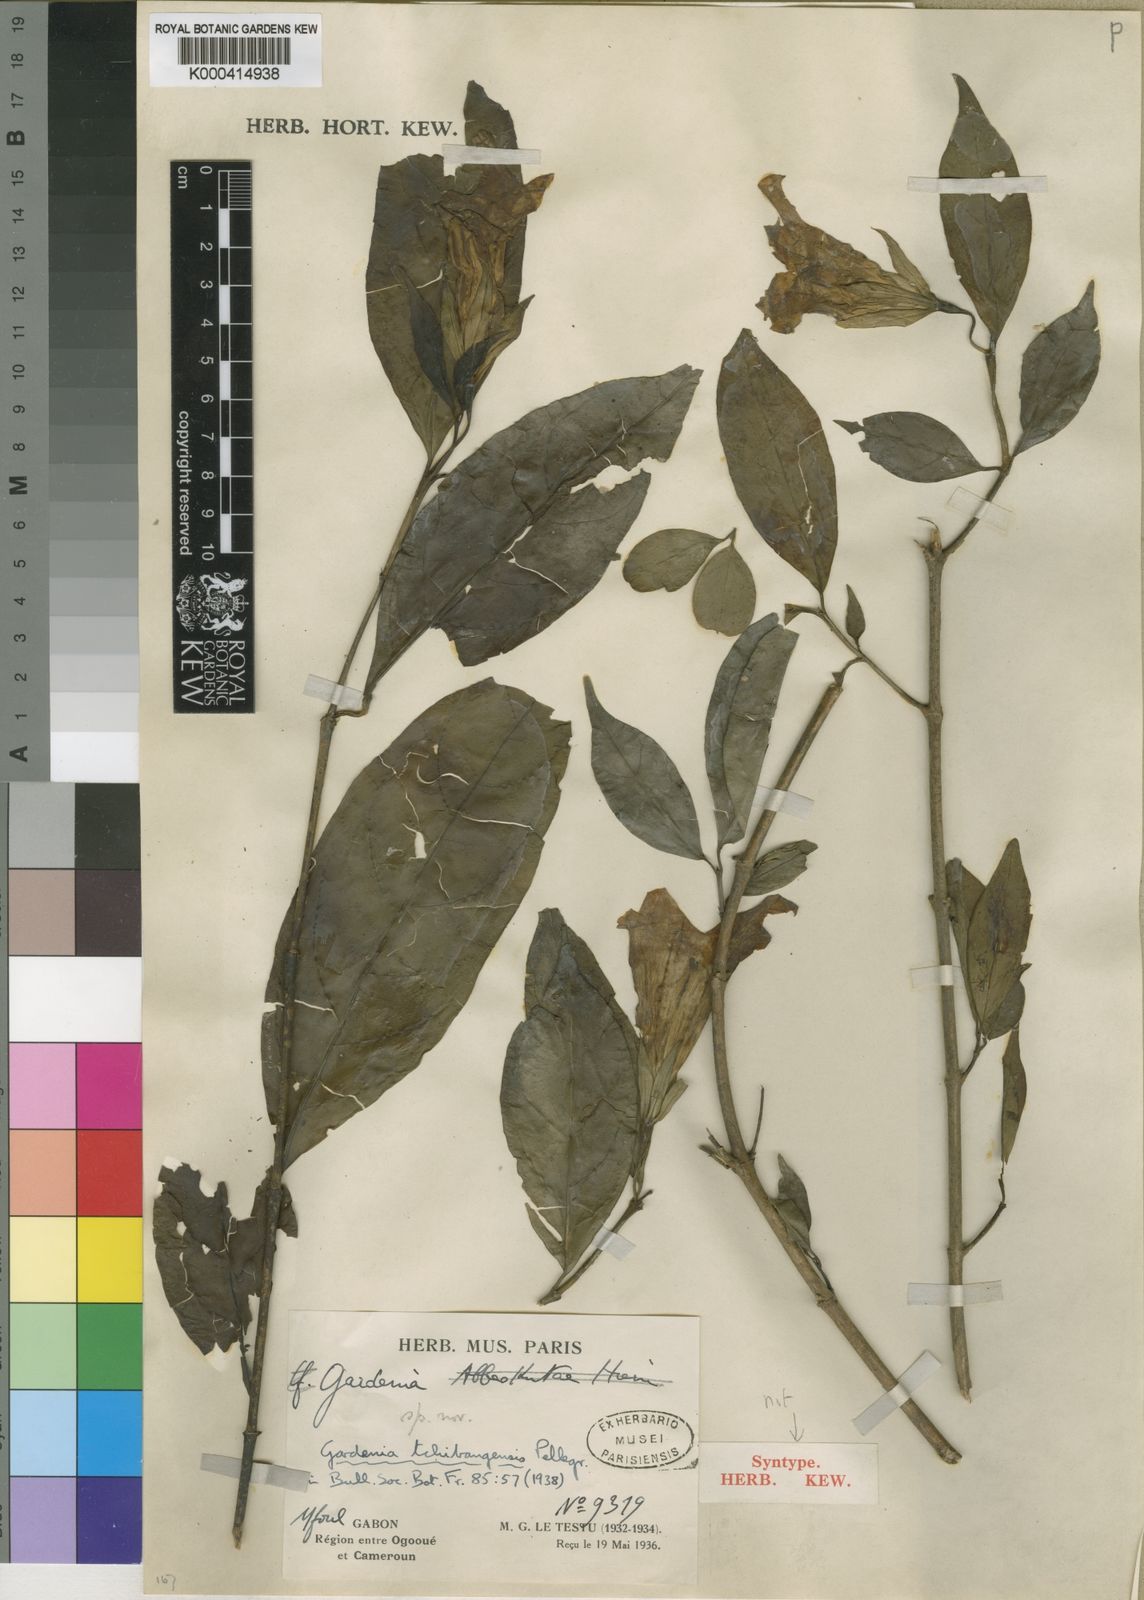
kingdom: Plantae
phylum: Tracheophyta
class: Magnoliopsida
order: Gentianales
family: Rubiaceae
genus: Didymosalpinx
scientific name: Didymosalpinx lanciloba
